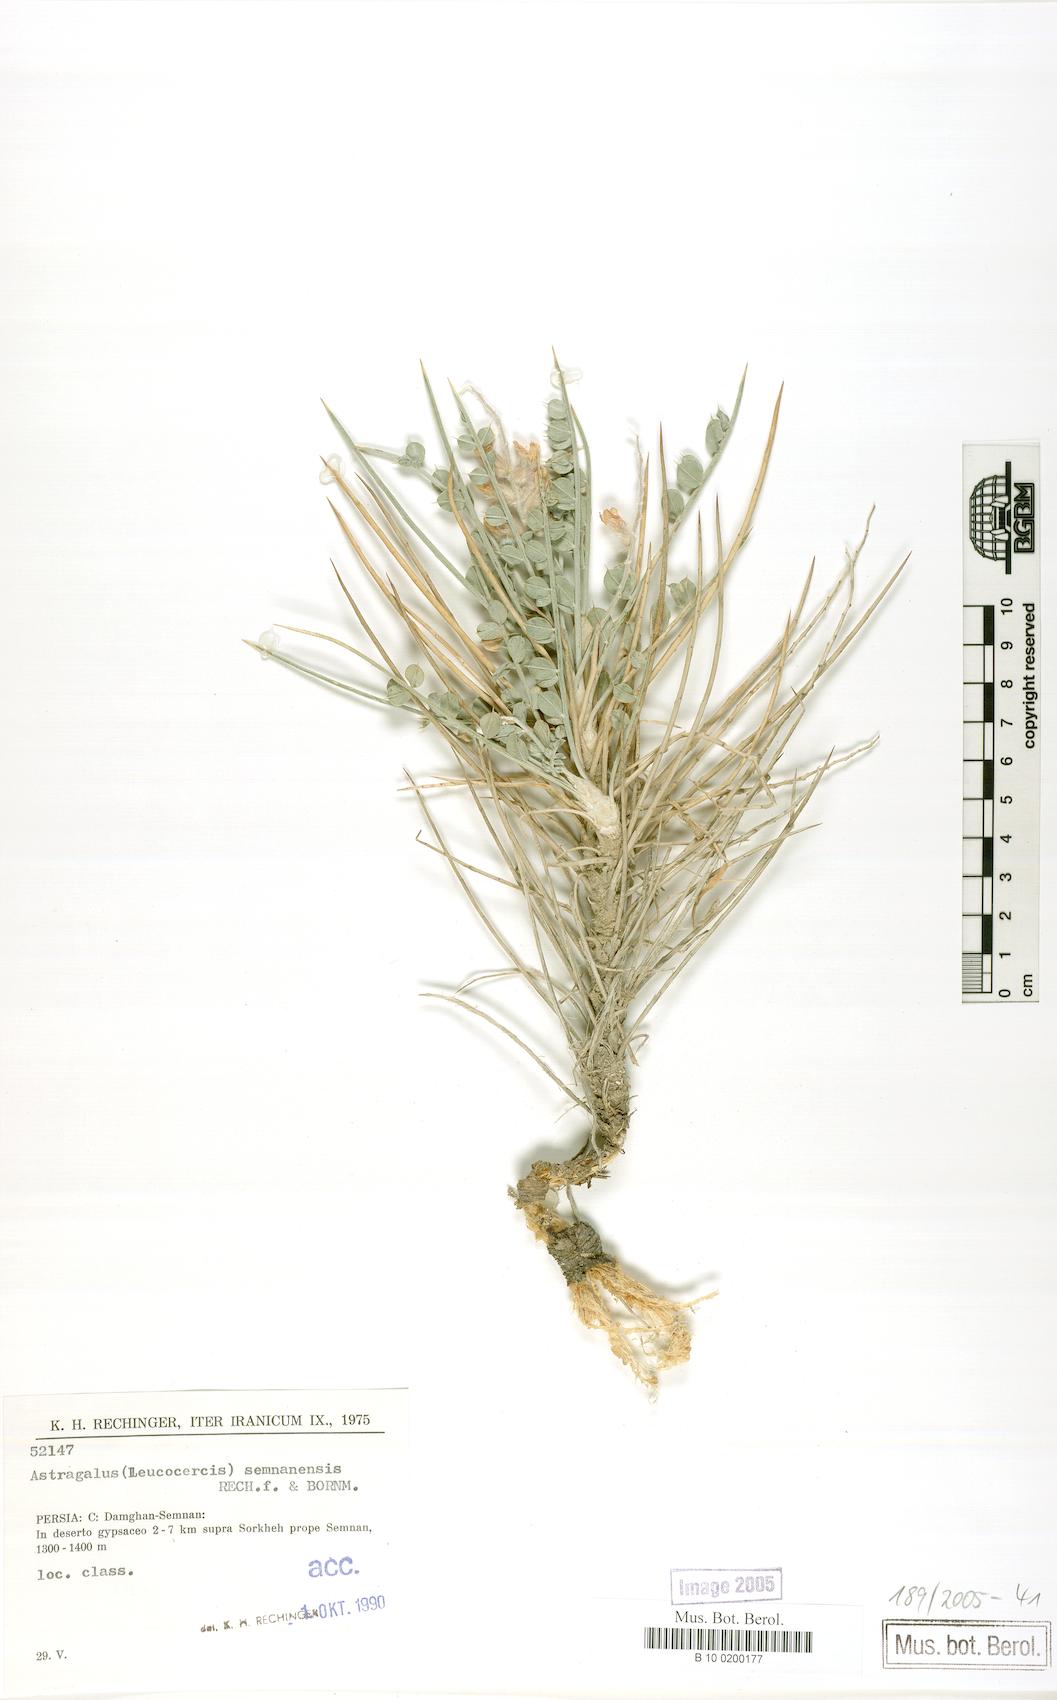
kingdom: Plantae
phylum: Tracheophyta
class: Magnoliopsida
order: Fabales
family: Fabaceae
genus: Astragalus
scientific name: Astragalus semnanensis
